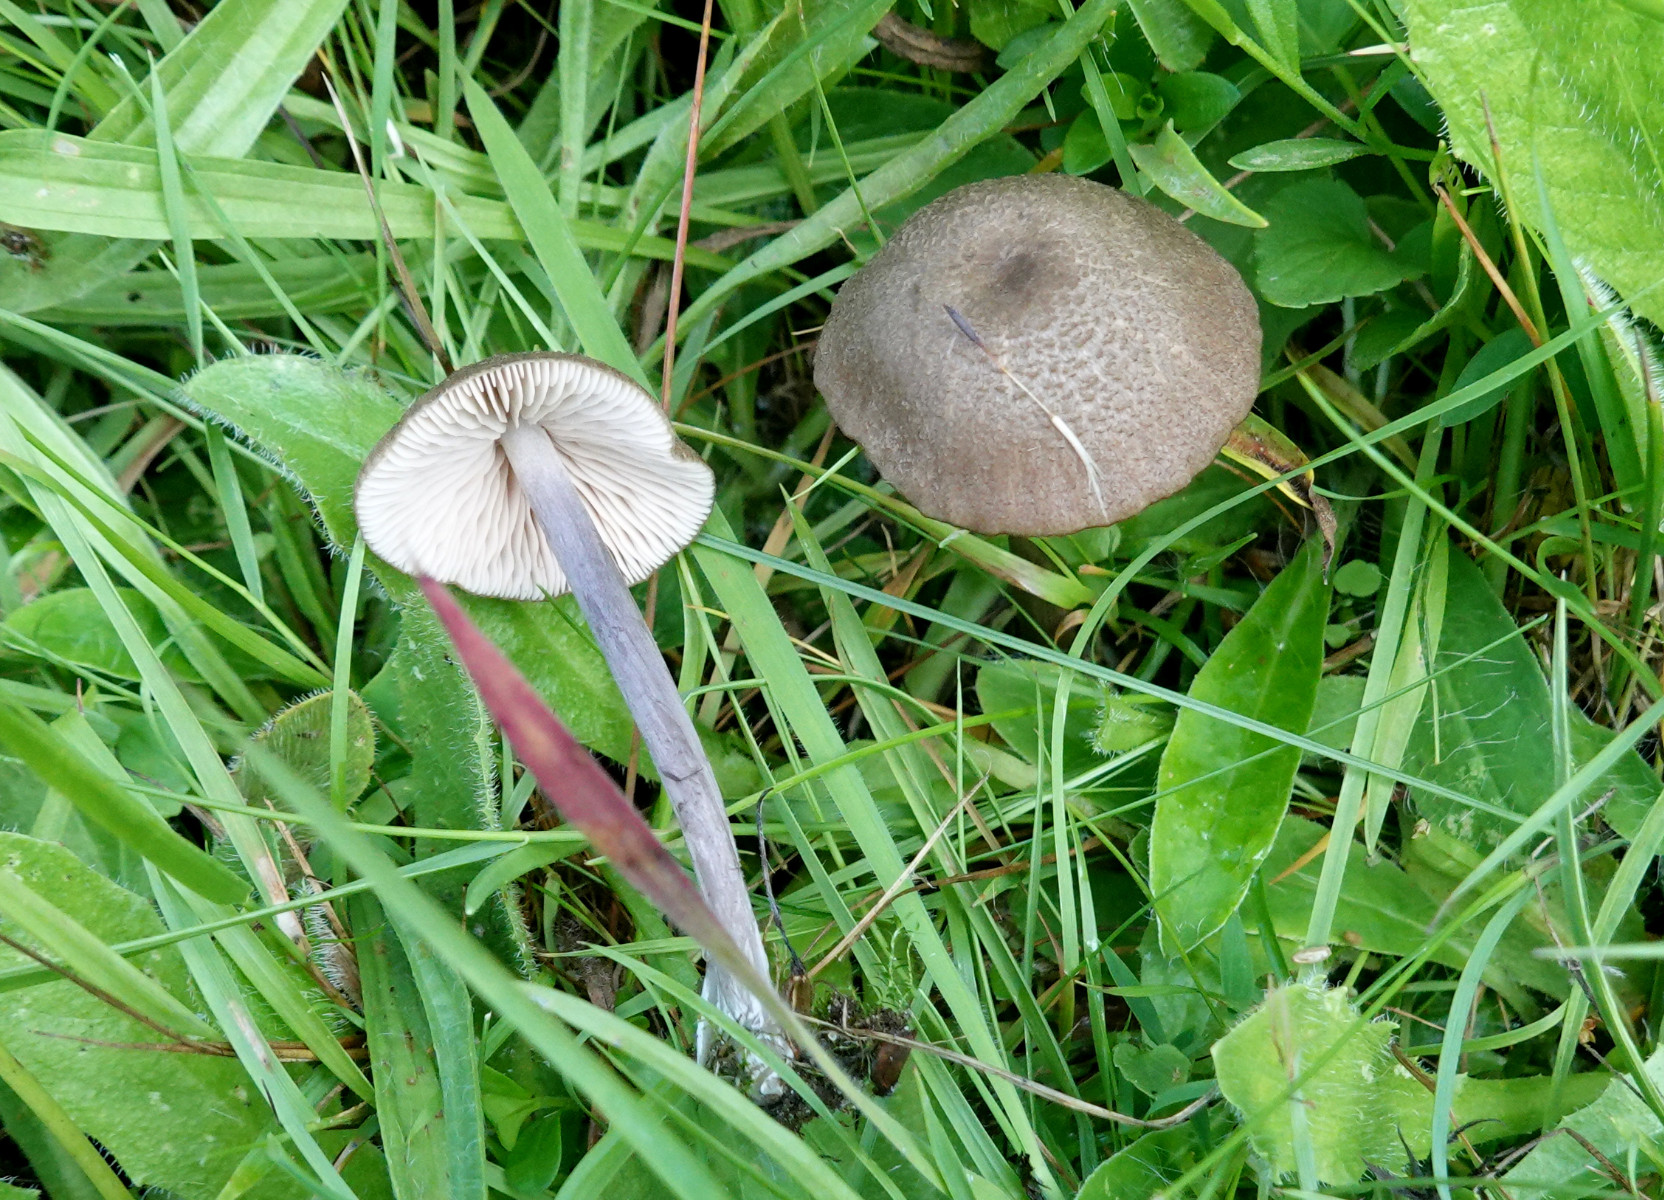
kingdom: Fungi
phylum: Basidiomycota
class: Agaricomycetes
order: Agaricales
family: Entolomataceae
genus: Entoloma
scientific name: Entoloma griseocyaneum
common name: gråblå rødblad
